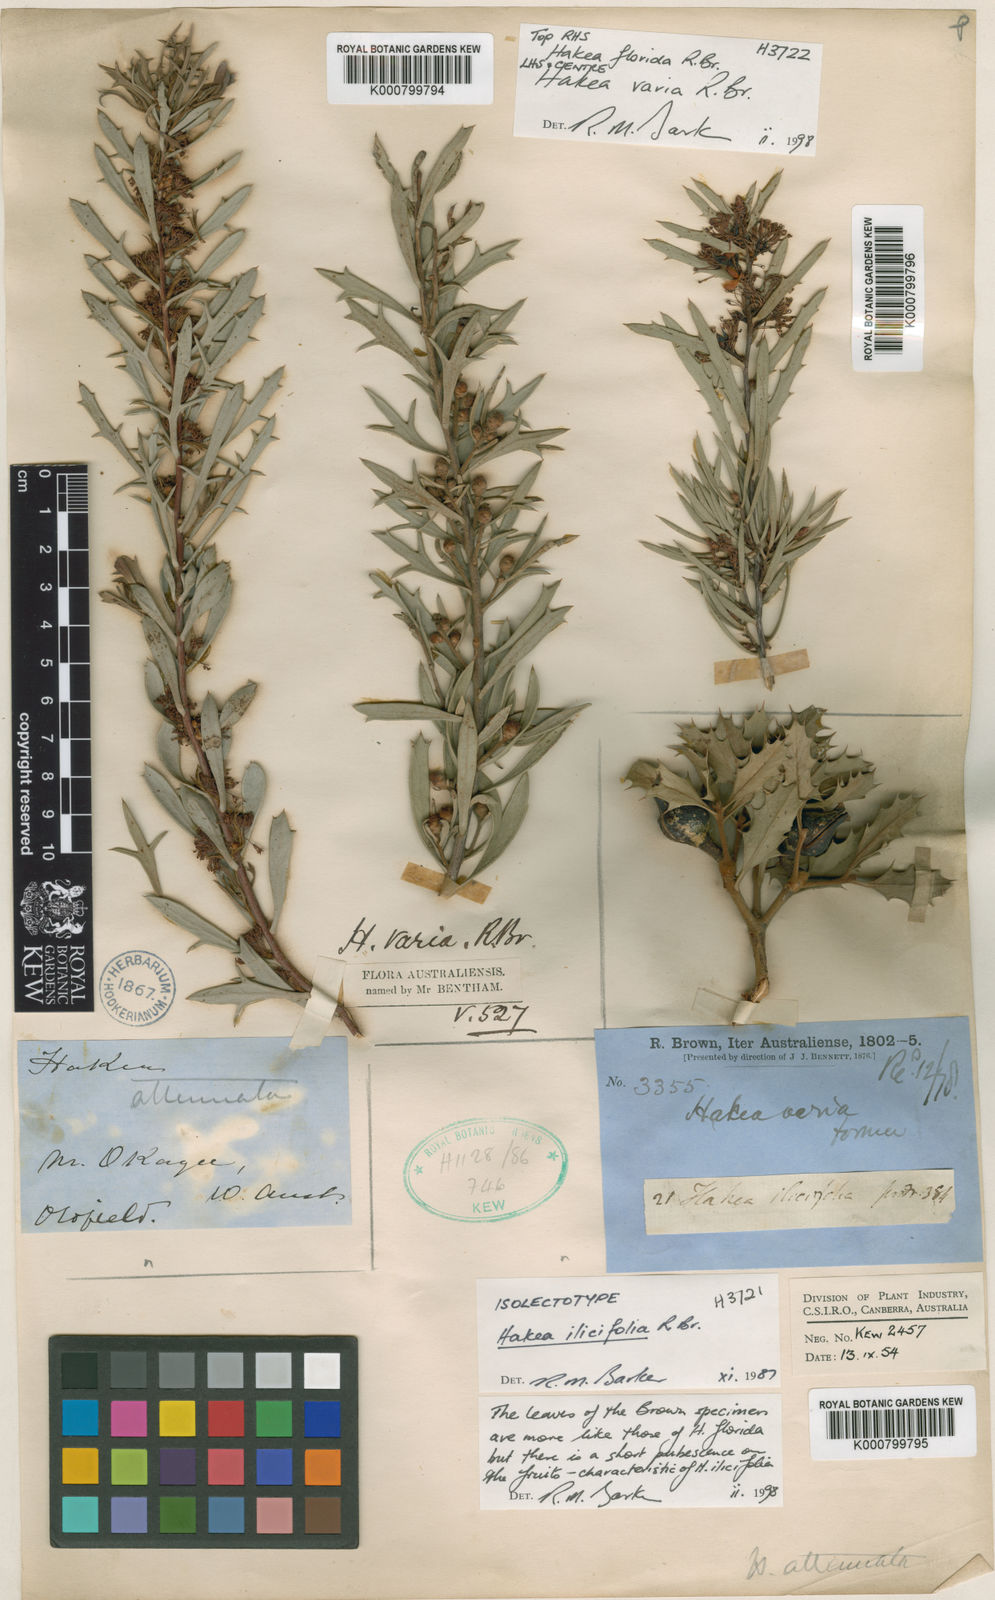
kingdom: Plantae
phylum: Tracheophyta
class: Magnoliopsida
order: Proteales
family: Proteaceae
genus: Hakea
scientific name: Hakea florida
